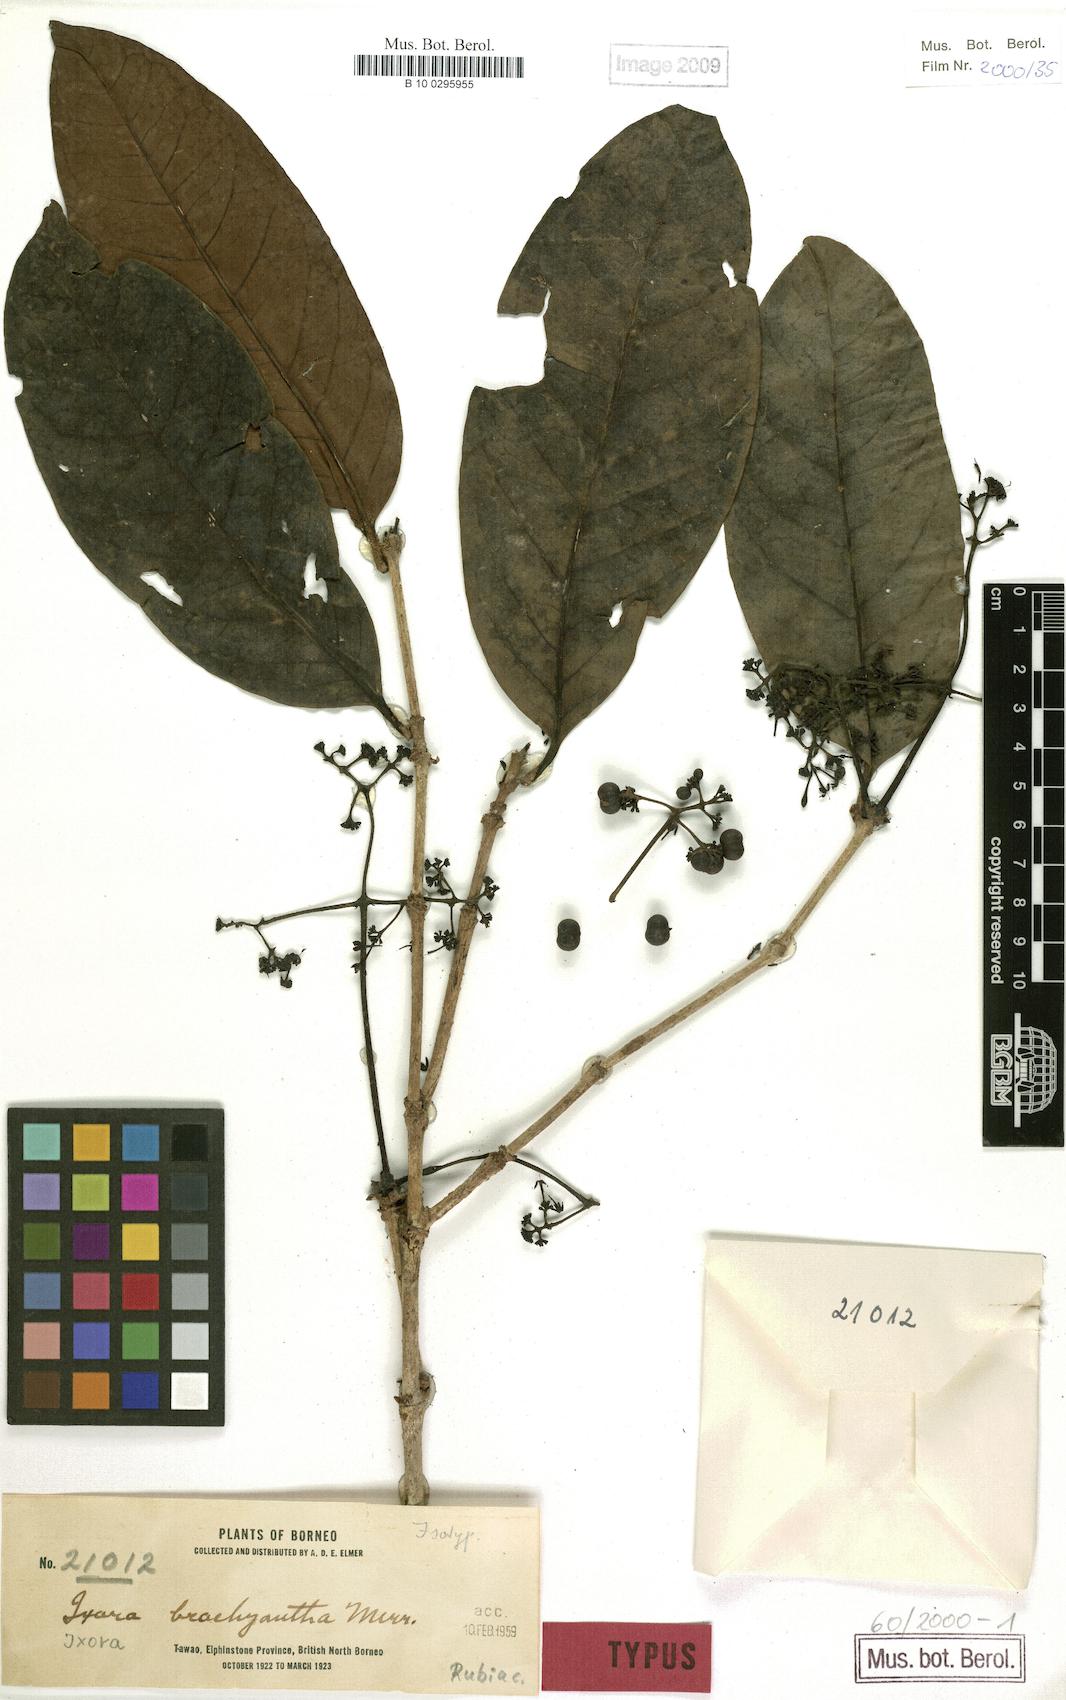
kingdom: Plantae
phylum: Tracheophyta
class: Magnoliopsida
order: Gentianales
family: Rubiaceae
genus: Ixora
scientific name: Ixora brachyantha
